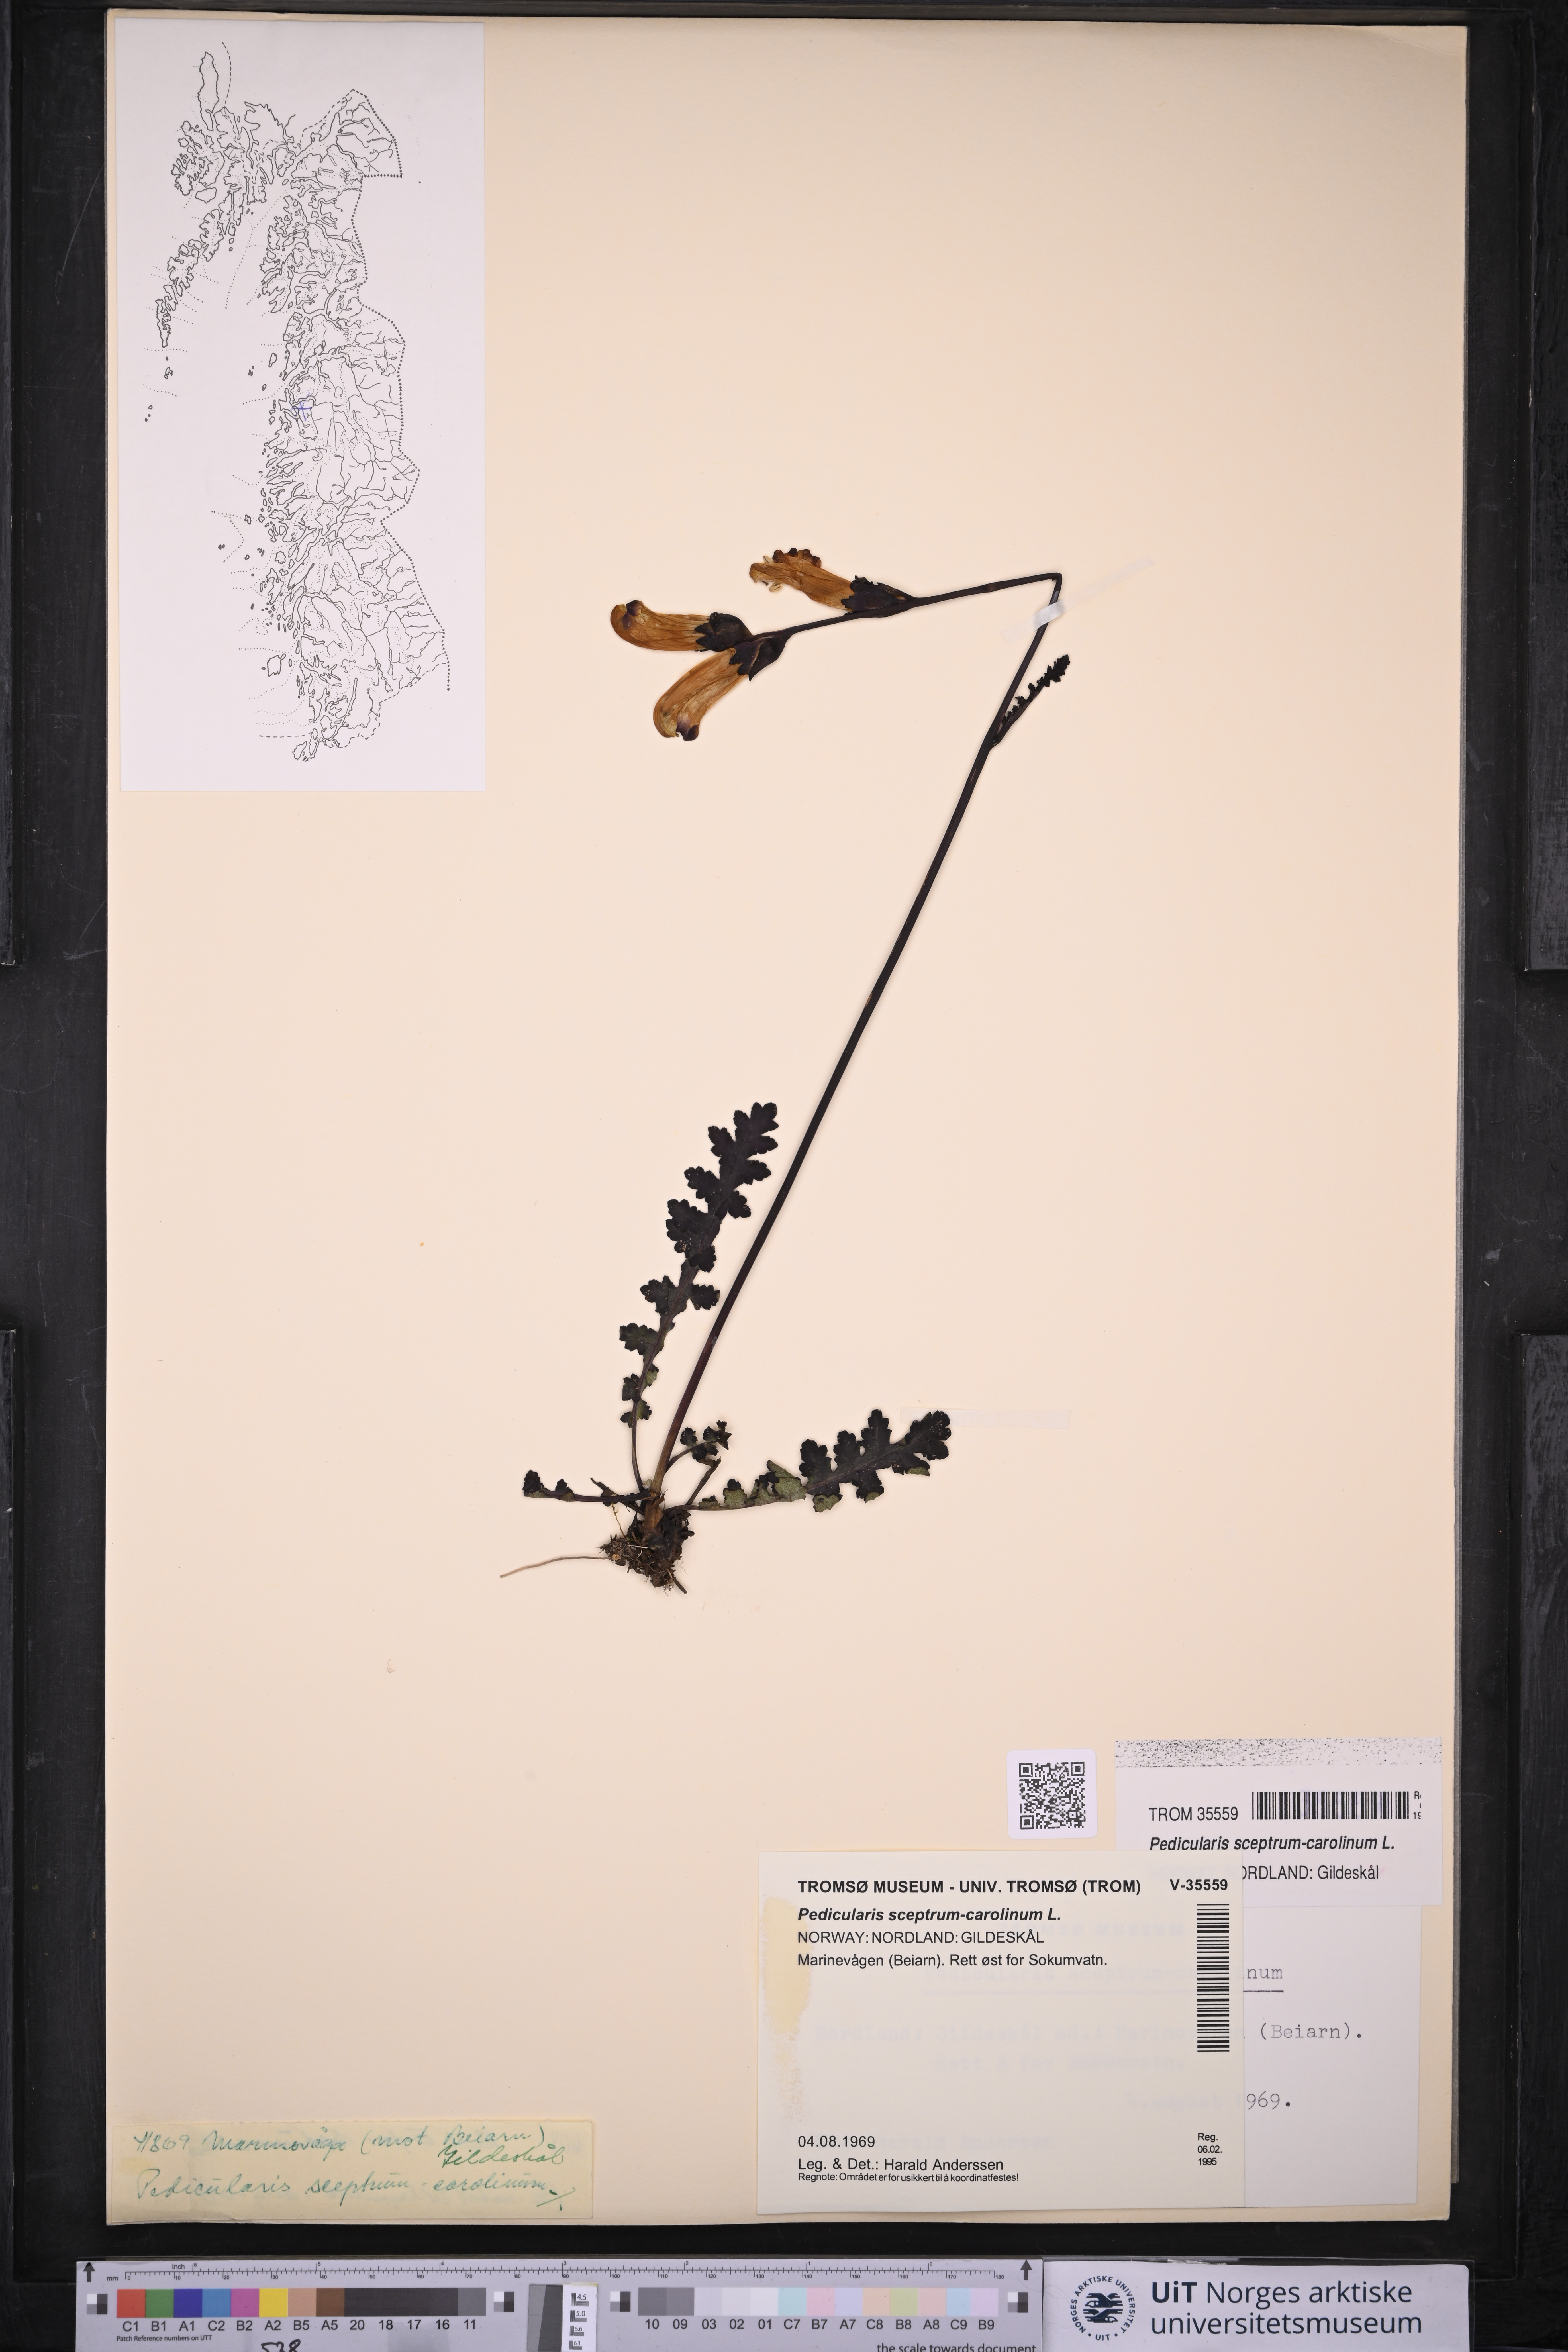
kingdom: Plantae
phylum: Tracheophyta
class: Magnoliopsida
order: Lamiales
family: Orobanchaceae
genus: Pedicularis
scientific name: Pedicularis sceptrum-carolinum
